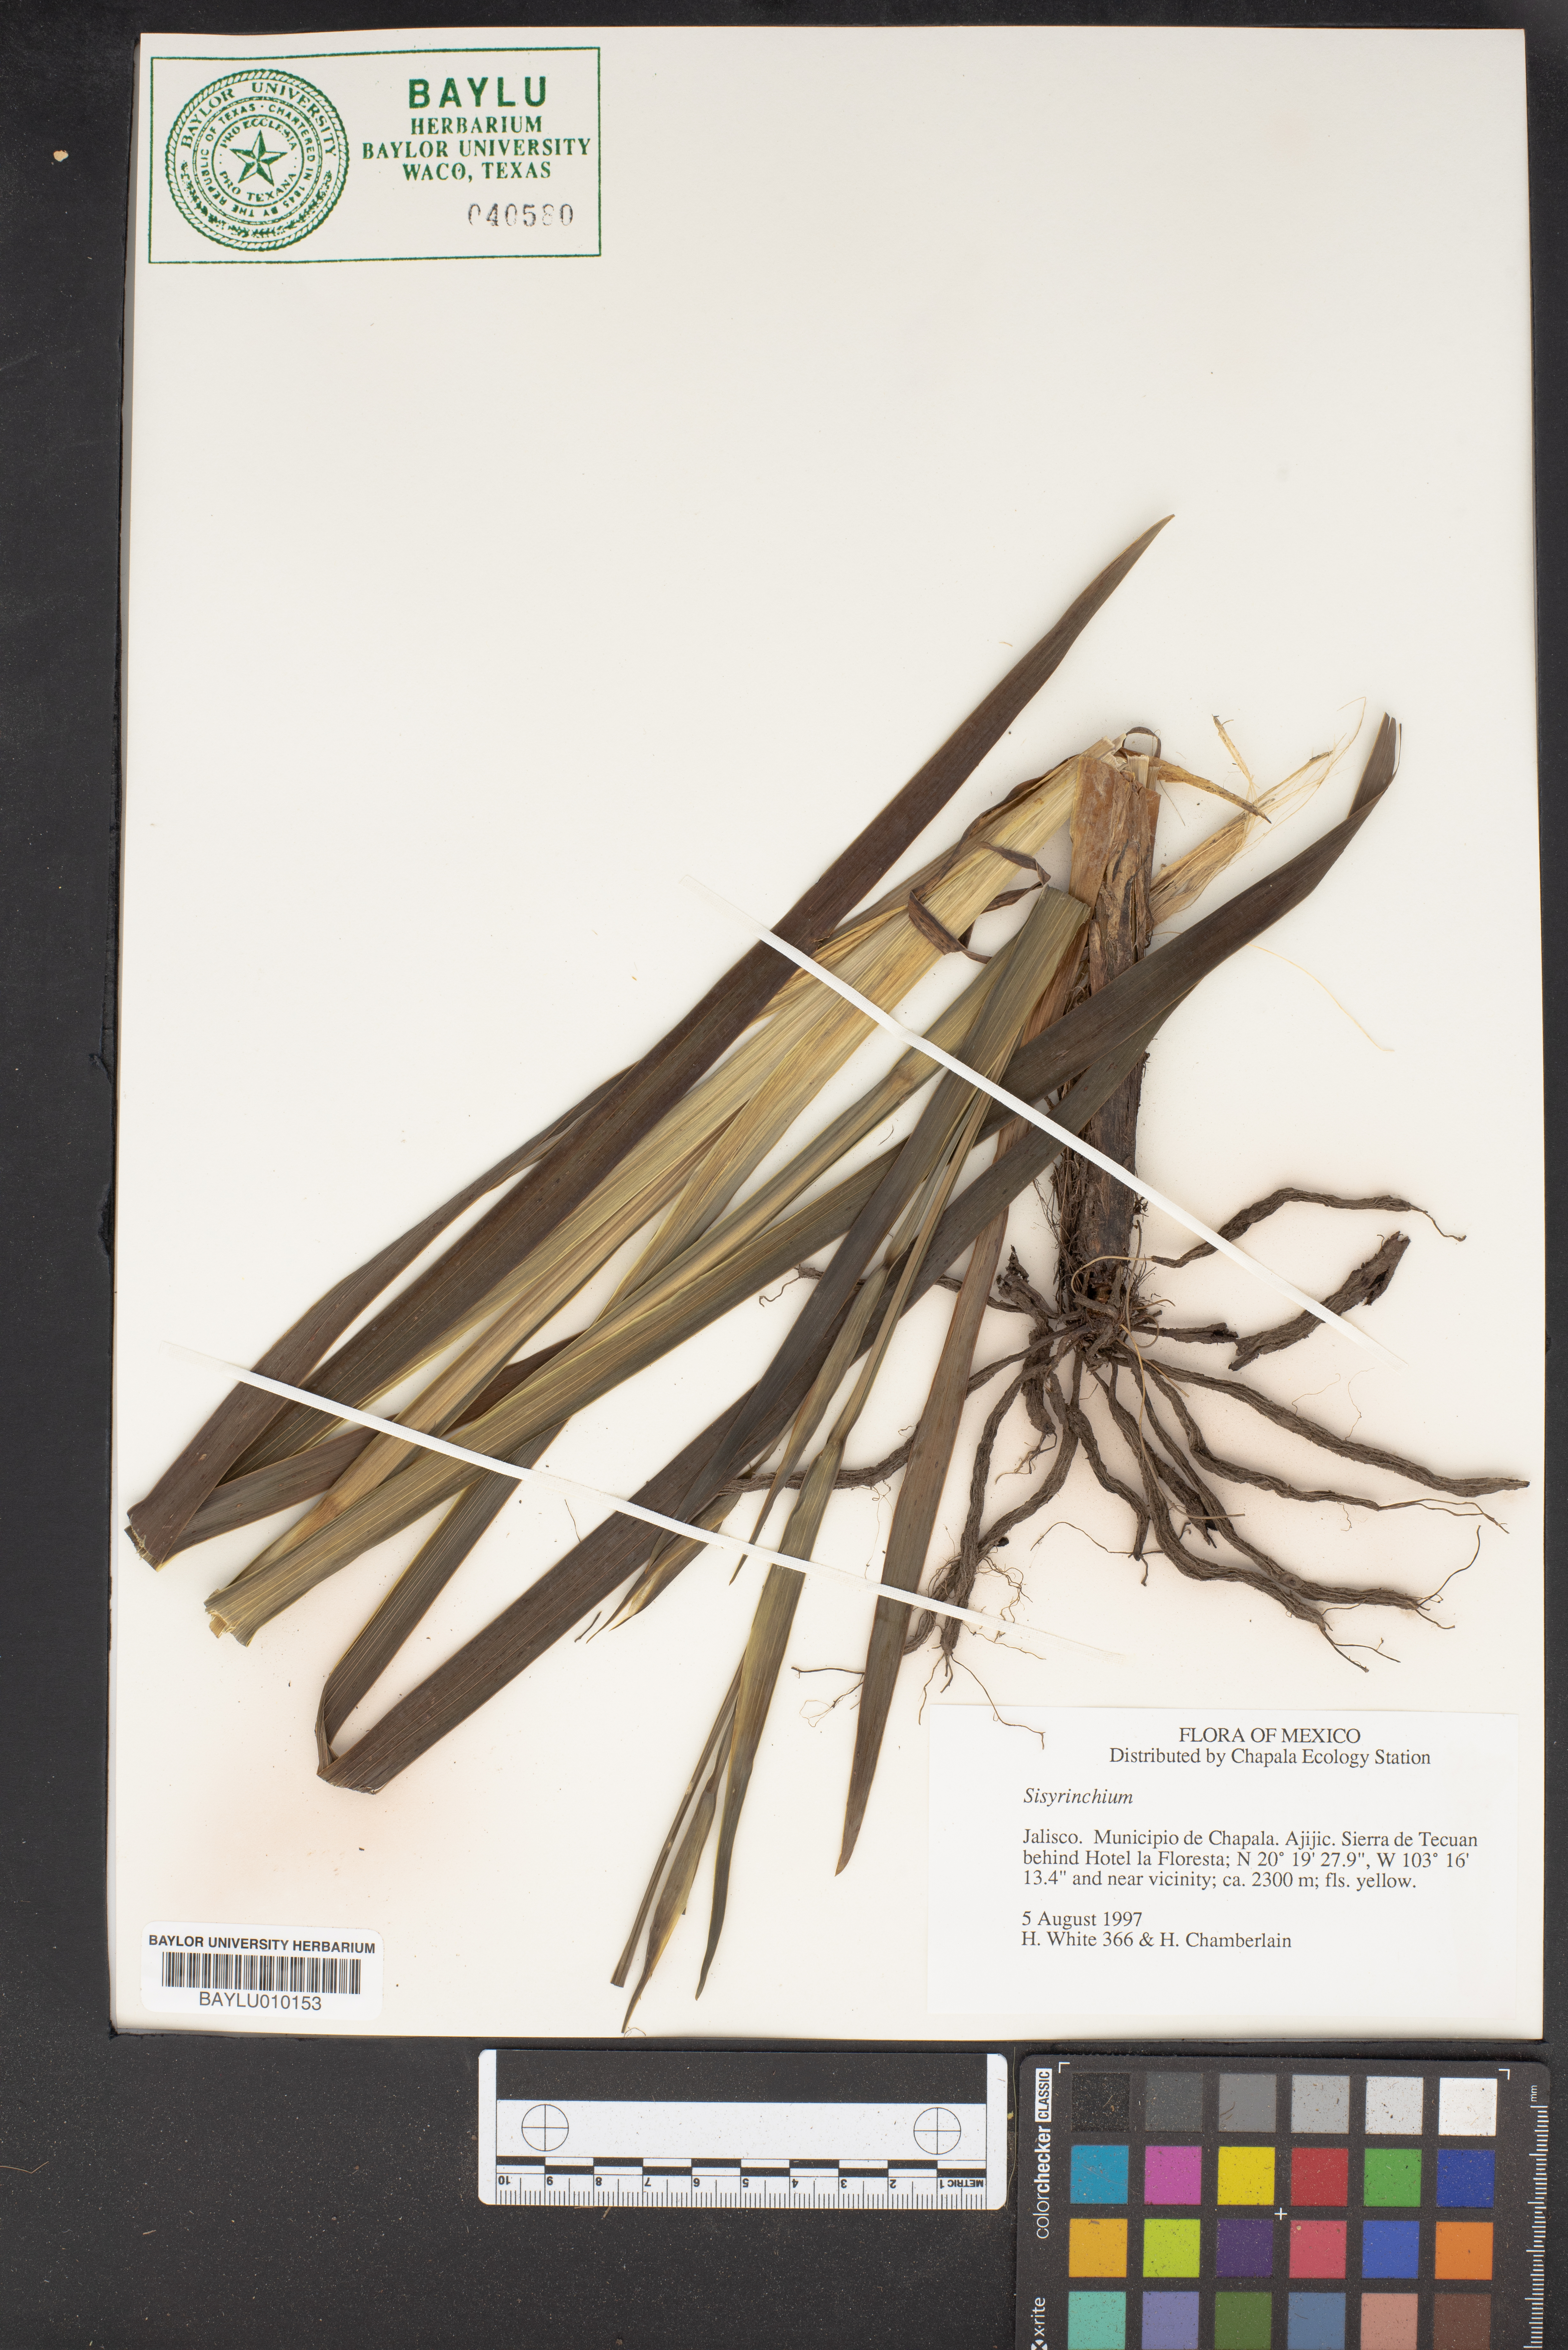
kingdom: Plantae
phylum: Tracheophyta
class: Liliopsida
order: Asparagales
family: Iridaceae
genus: Sisyrinchium
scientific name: Sisyrinchium
